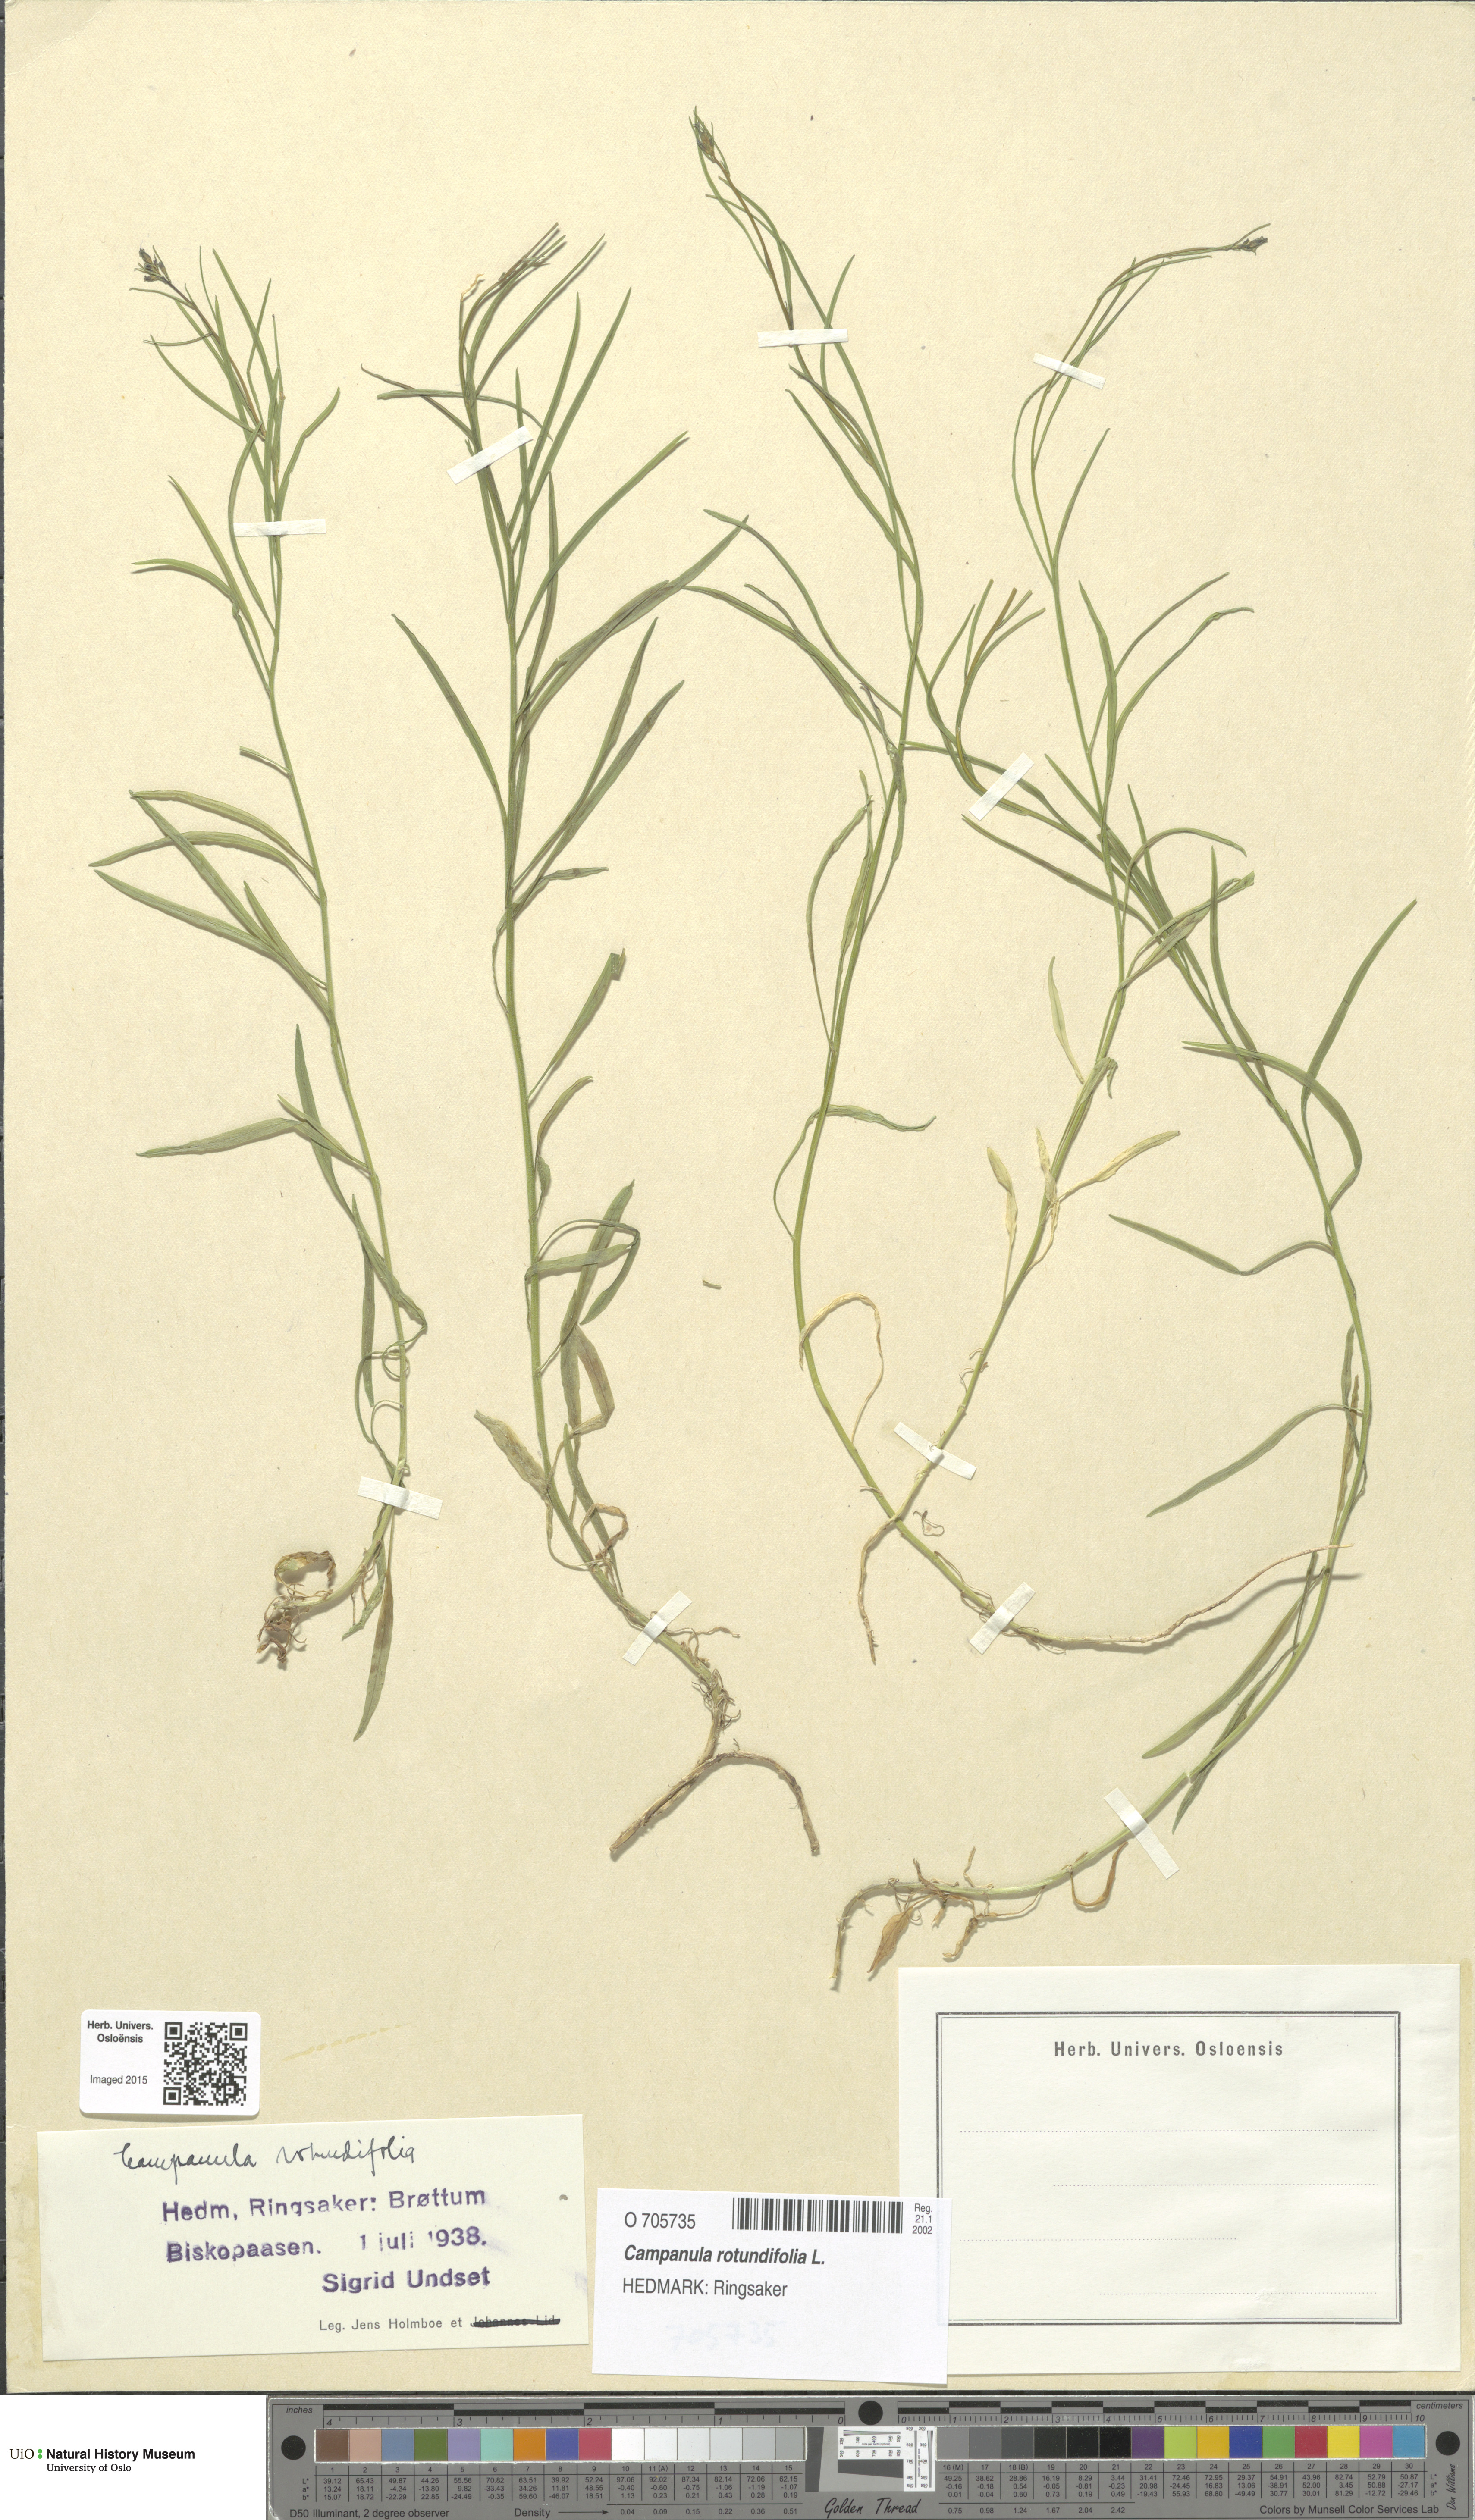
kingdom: Plantae
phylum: Tracheophyta
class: Magnoliopsida
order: Asterales
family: Campanulaceae
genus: Campanula
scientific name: Campanula rotundifolia
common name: Harebell
